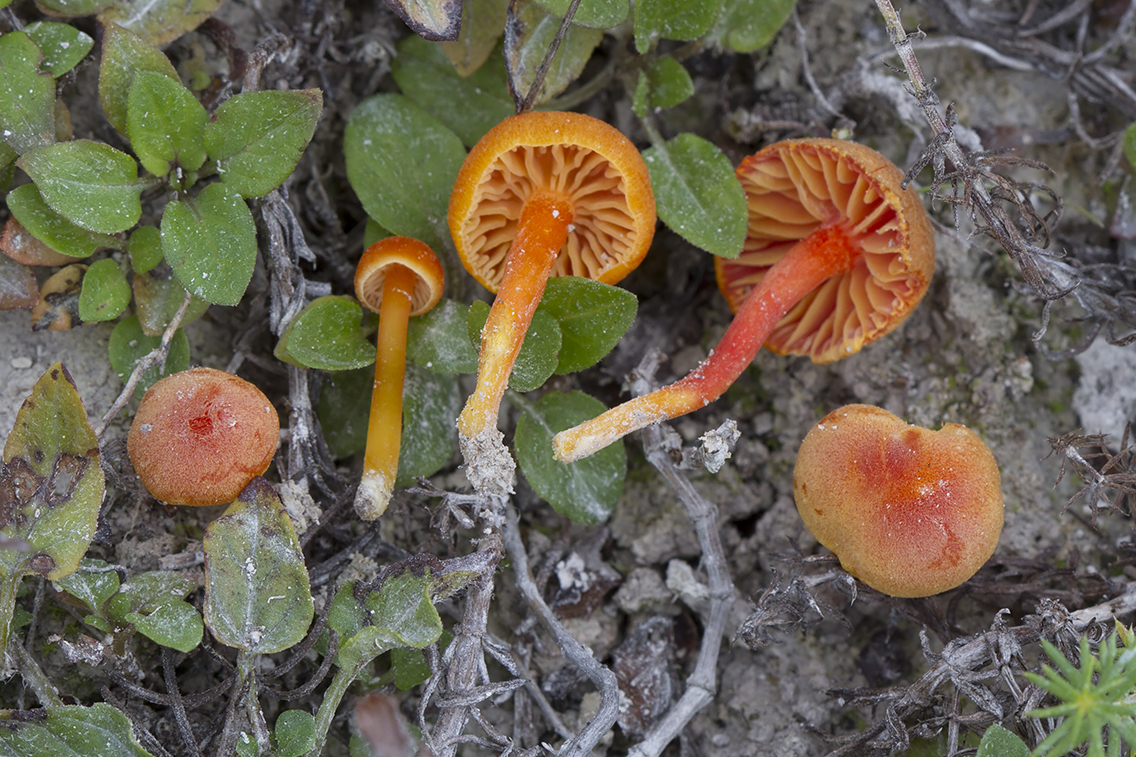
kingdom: Fungi
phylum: Basidiomycota
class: Agaricomycetes
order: Agaricales
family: Hygrophoraceae
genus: Hygrocybe
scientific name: Hygrocybe calciphila
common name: kalk-vokshat
